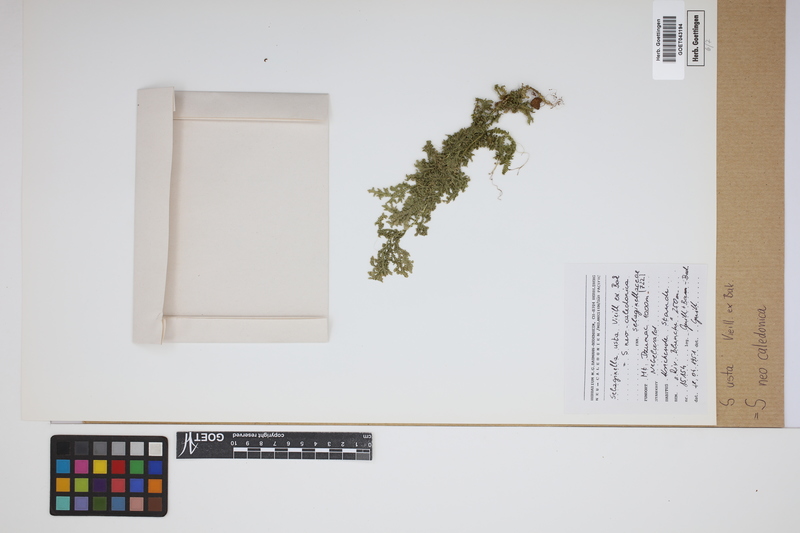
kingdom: Plantae
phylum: Tracheophyta
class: Lycopodiopsida
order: Selaginellales
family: Selaginellaceae
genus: Selaginella
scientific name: Selaginella neocaledonica
